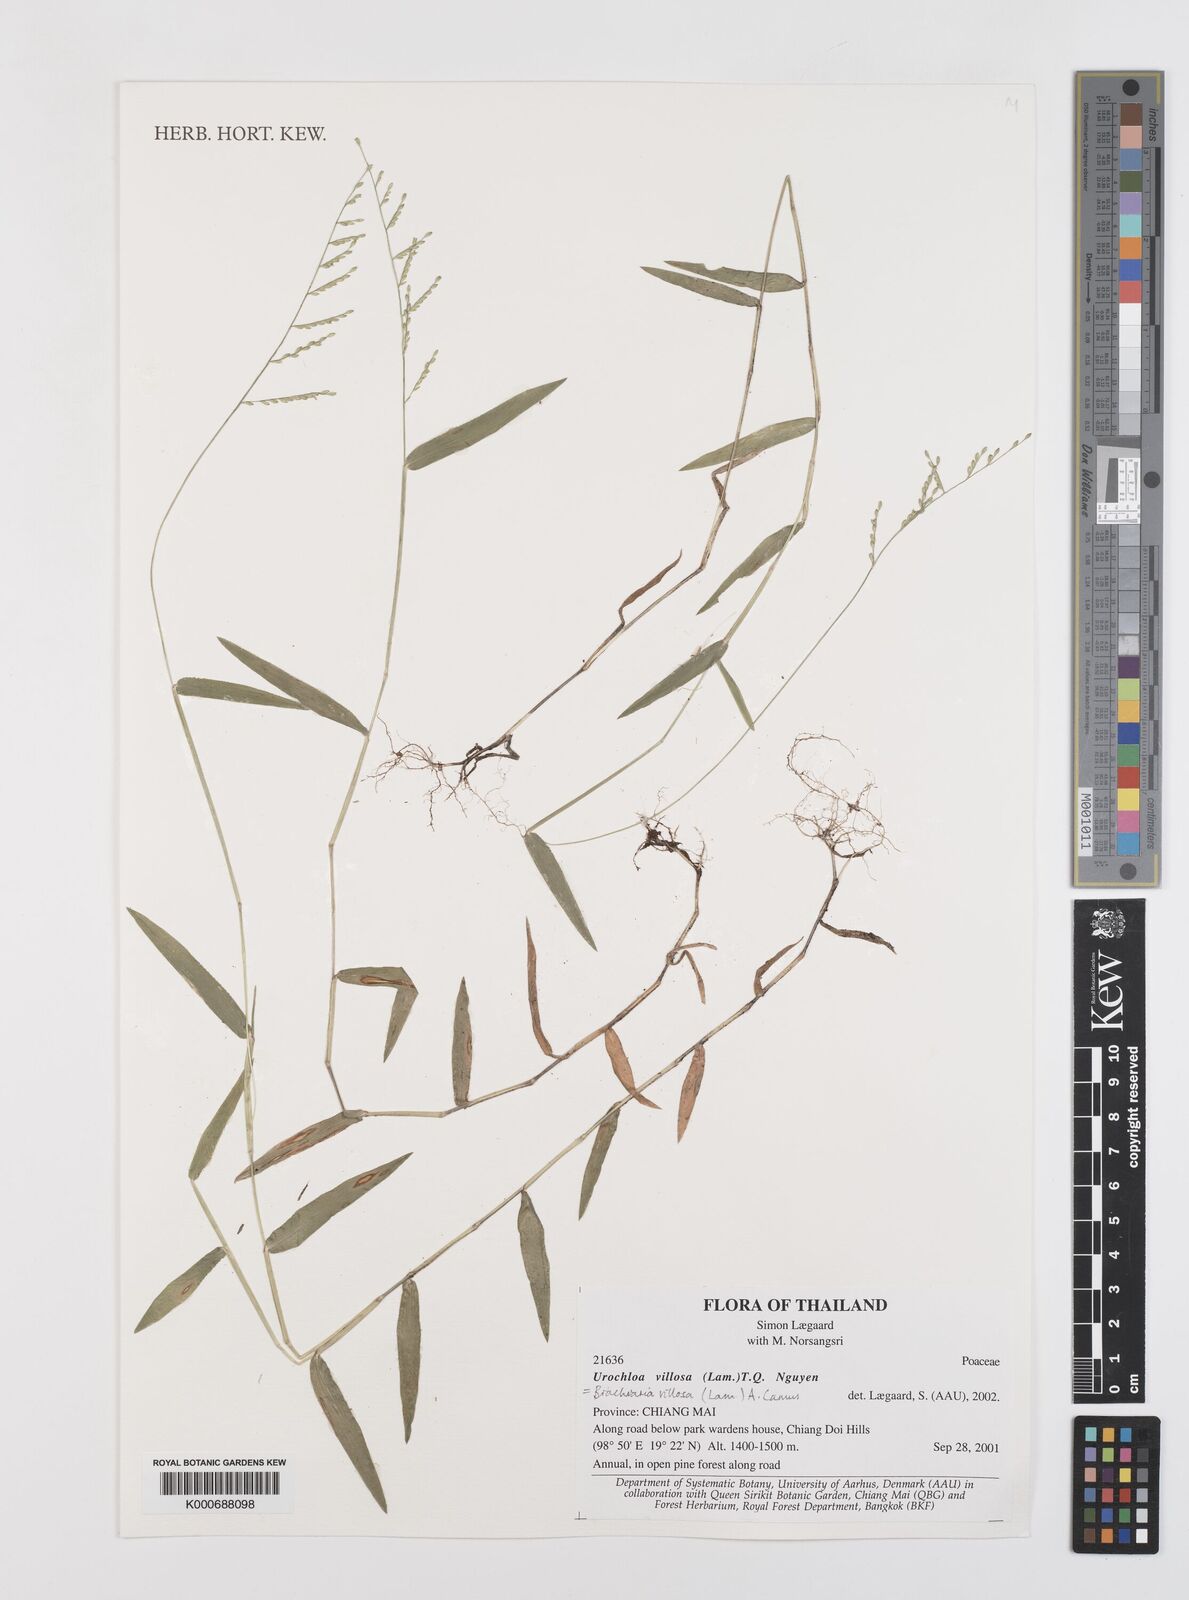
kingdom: Plantae
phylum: Tracheophyta
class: Liliopsida
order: Poales
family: Poaceae
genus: Urochloa
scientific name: Urochloa villosa
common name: Hairy signalgrass
